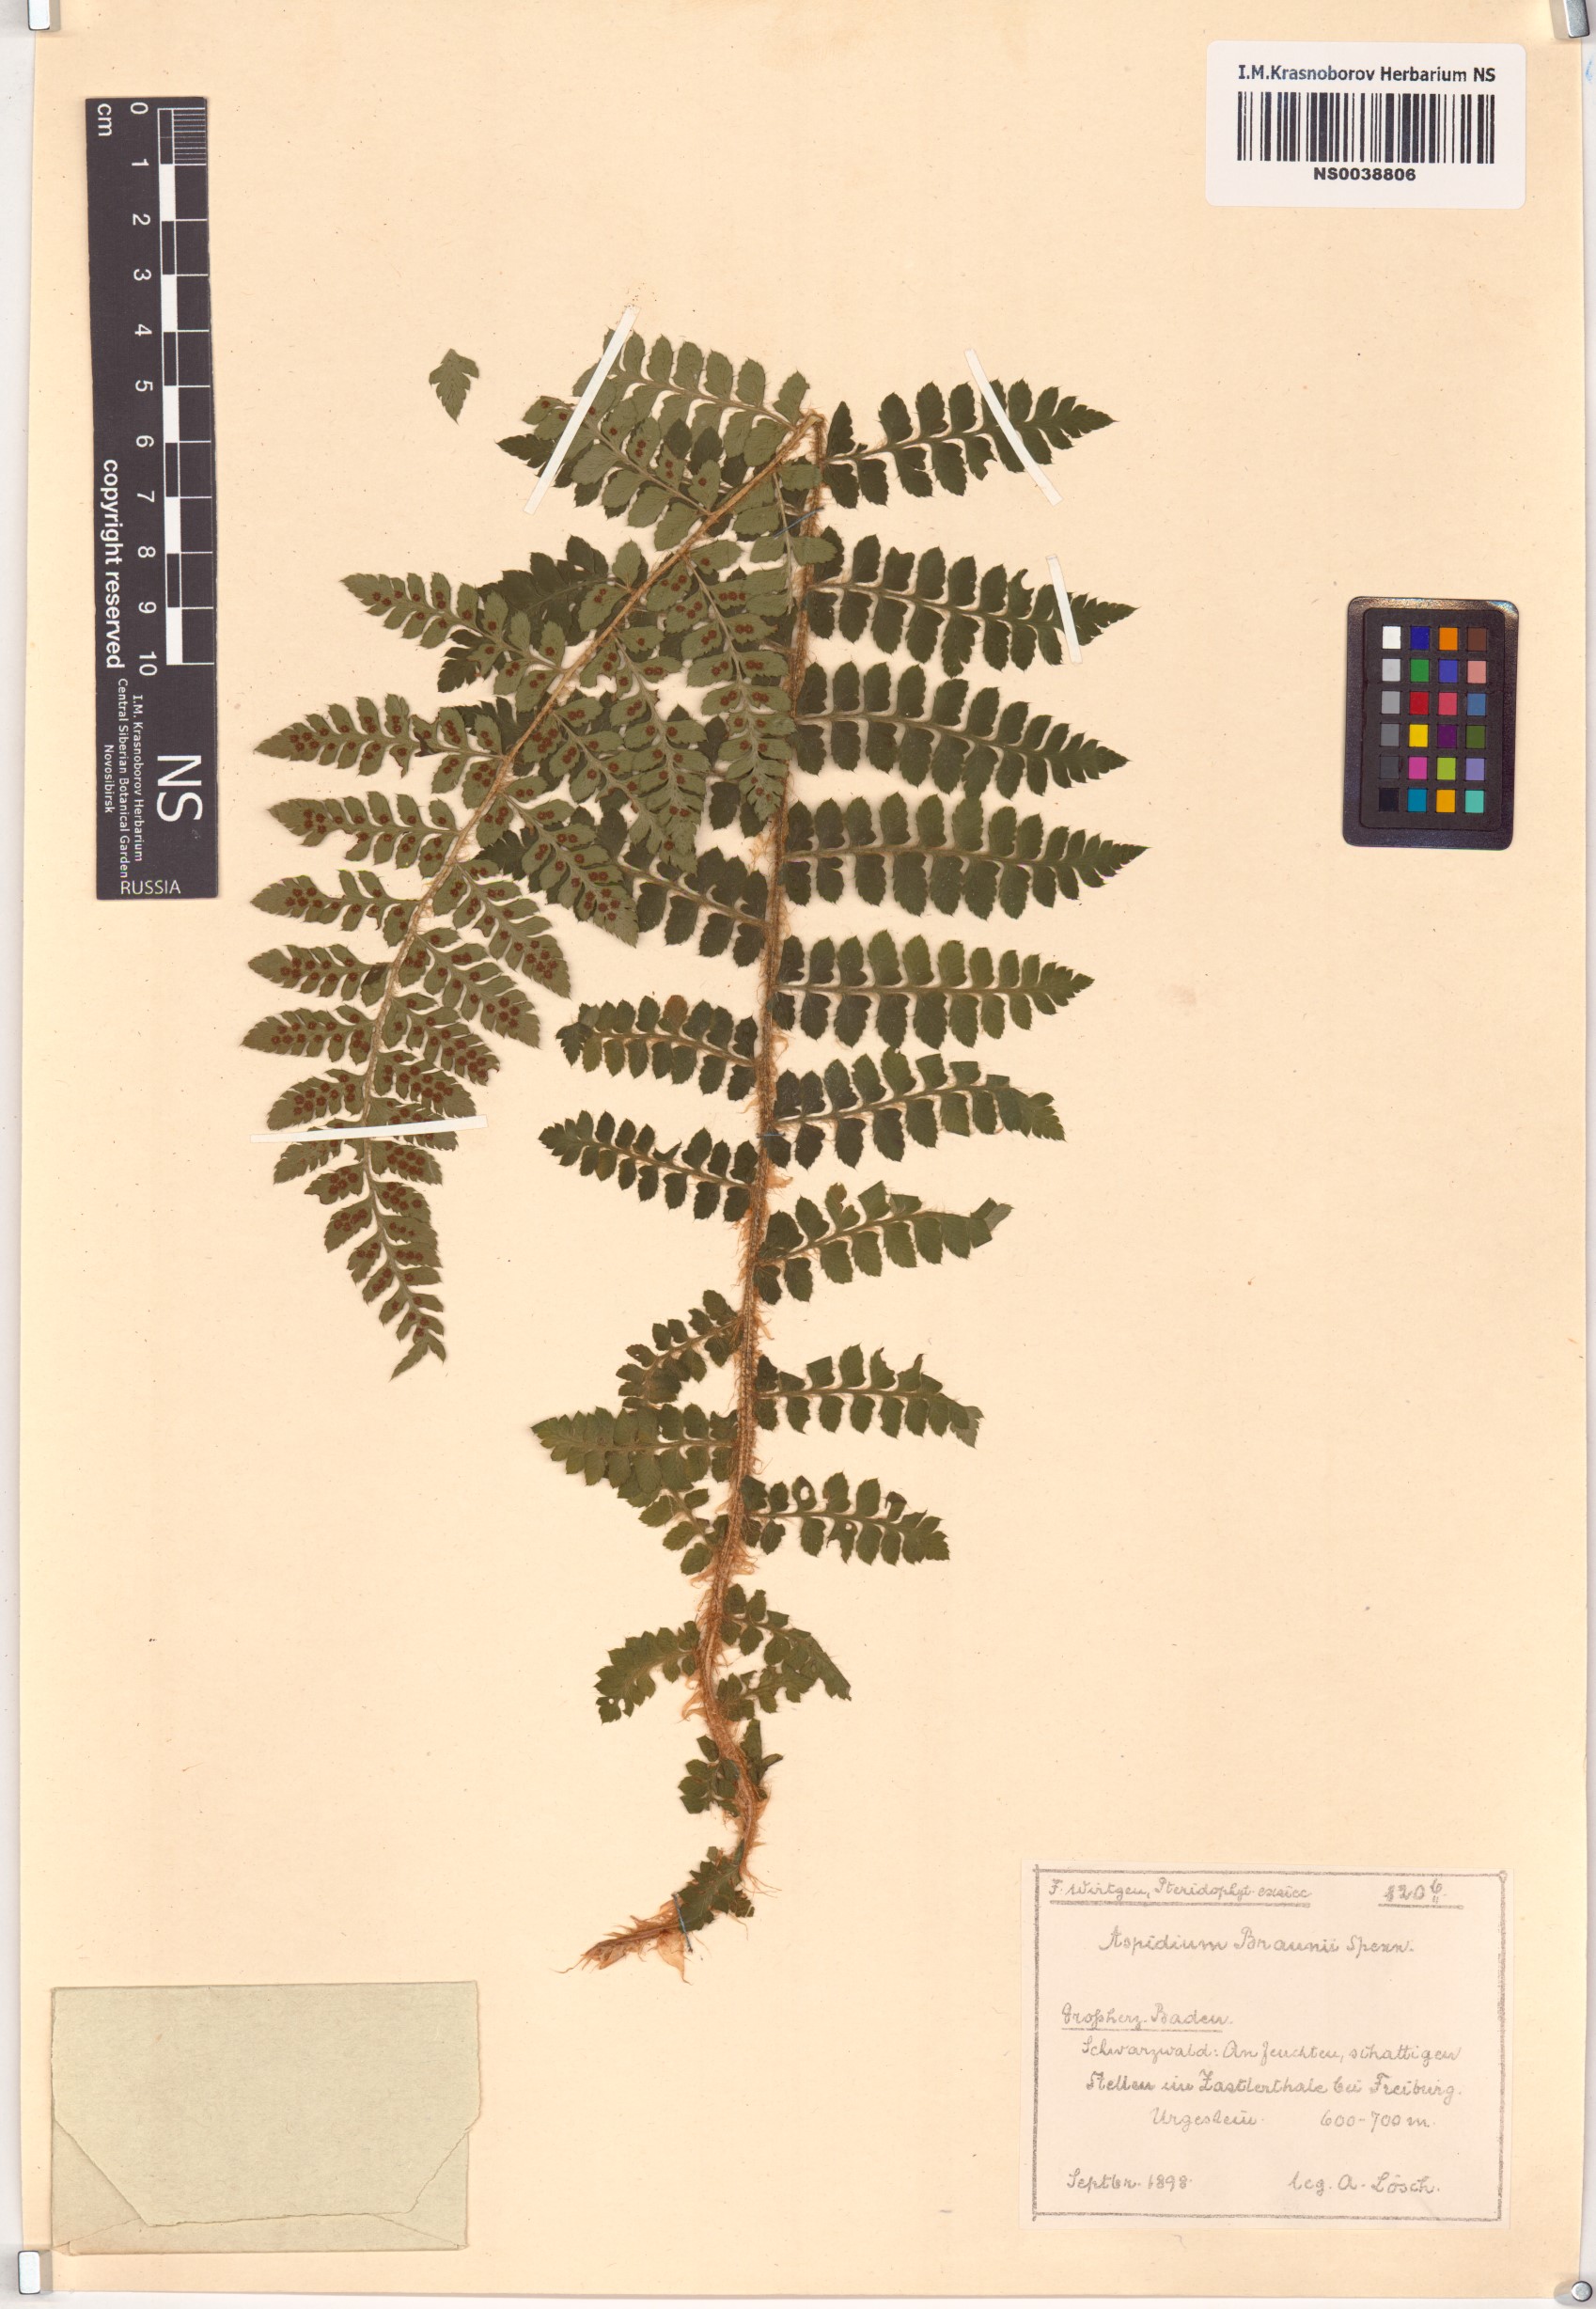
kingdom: Plantae
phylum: Tracheophyta
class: Polypodiopsida
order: Polypodiales
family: Dryopteridaceae
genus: Polystichum
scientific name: Polystichum braunii
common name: Braun's holly fern
